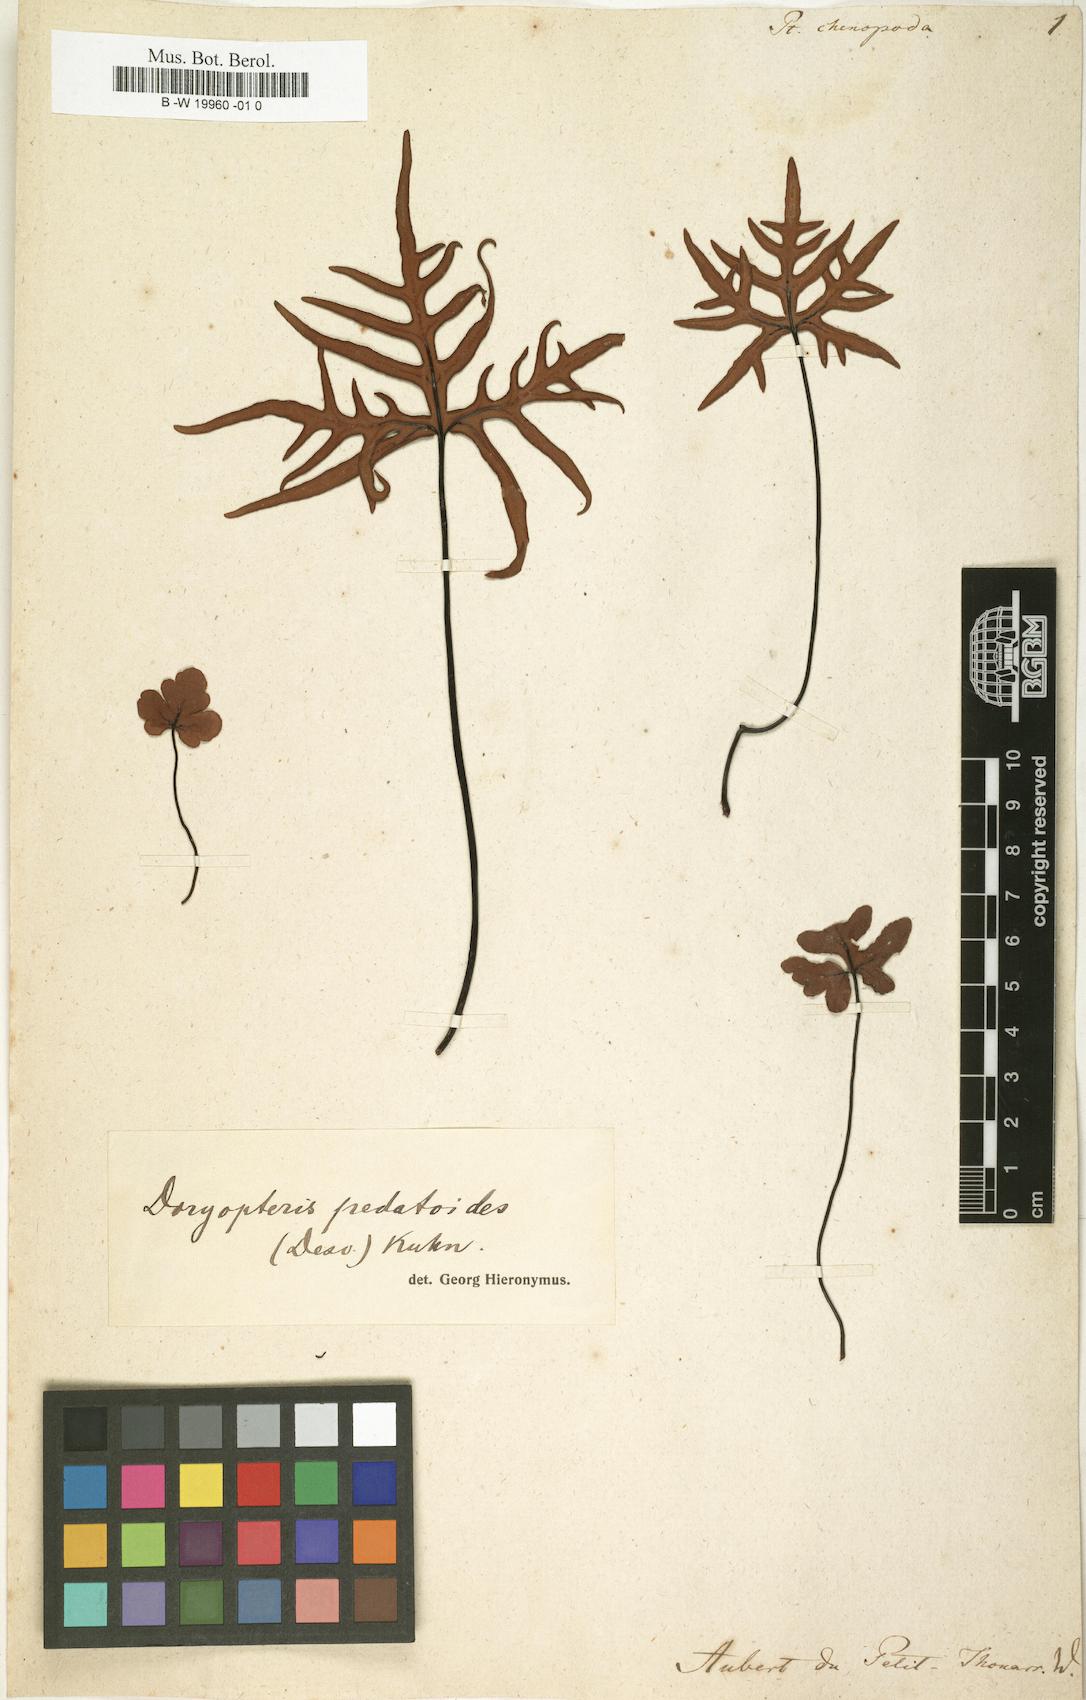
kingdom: Plantae
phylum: Tracheophyta
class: Polypodiopsida
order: Polypodiales
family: Polypodiaceae
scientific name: Polypodiaceae
